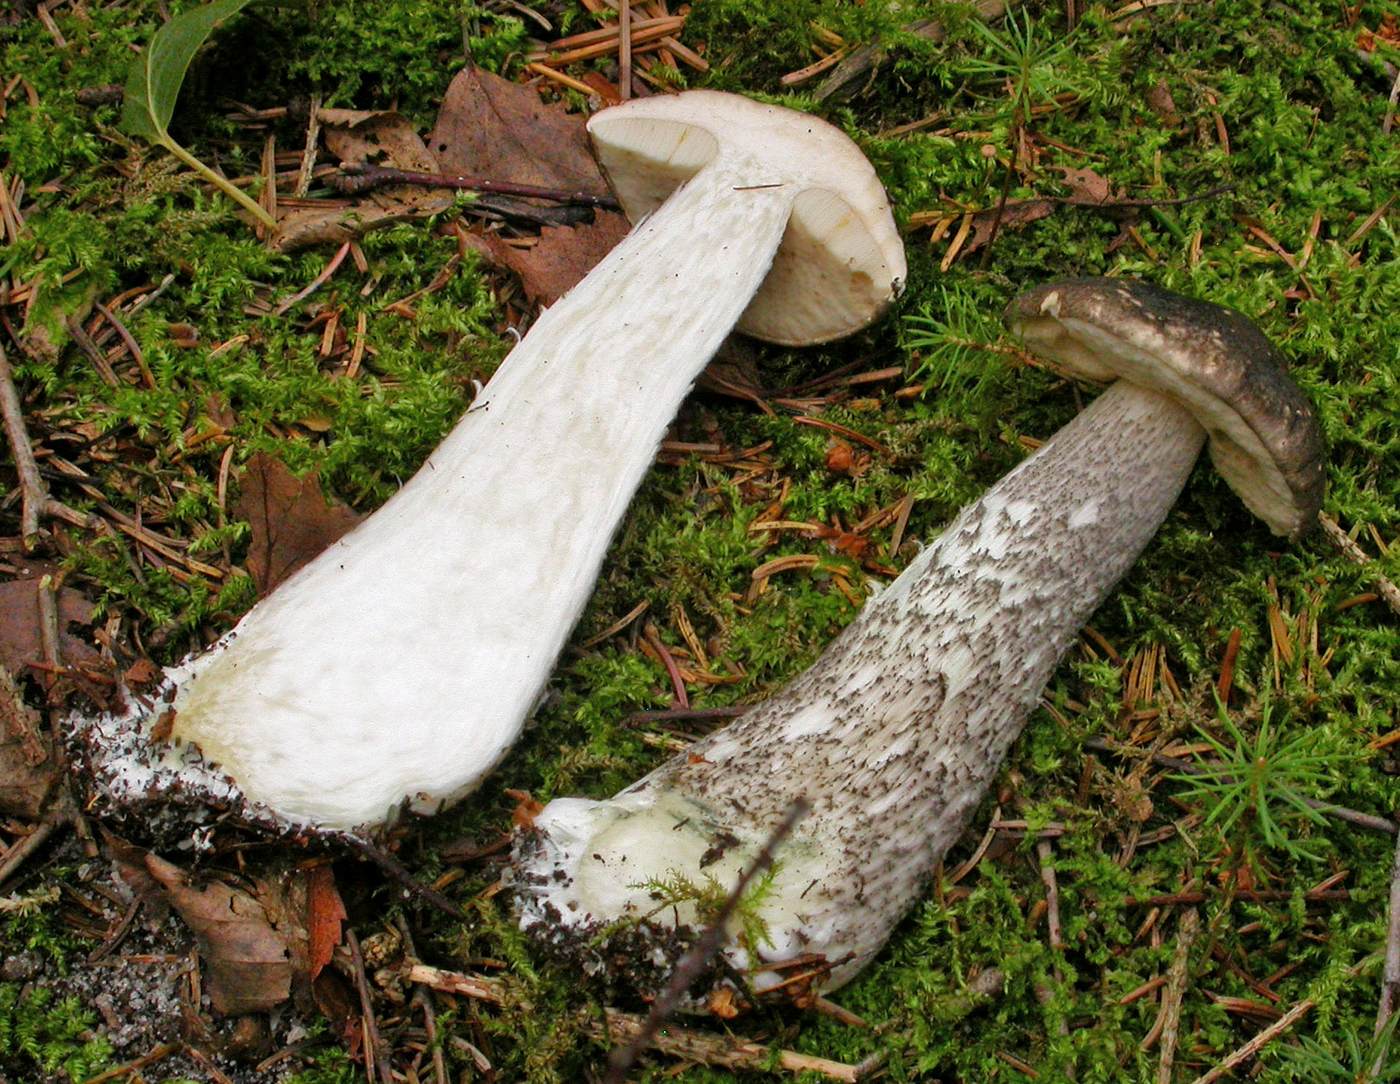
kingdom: Fungi
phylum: Basidiomycota
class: Agaricomycetes
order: Boletales
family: Boletaceae
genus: Leccinum
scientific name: Leccinum variicolor
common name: flammet skælrørhat
